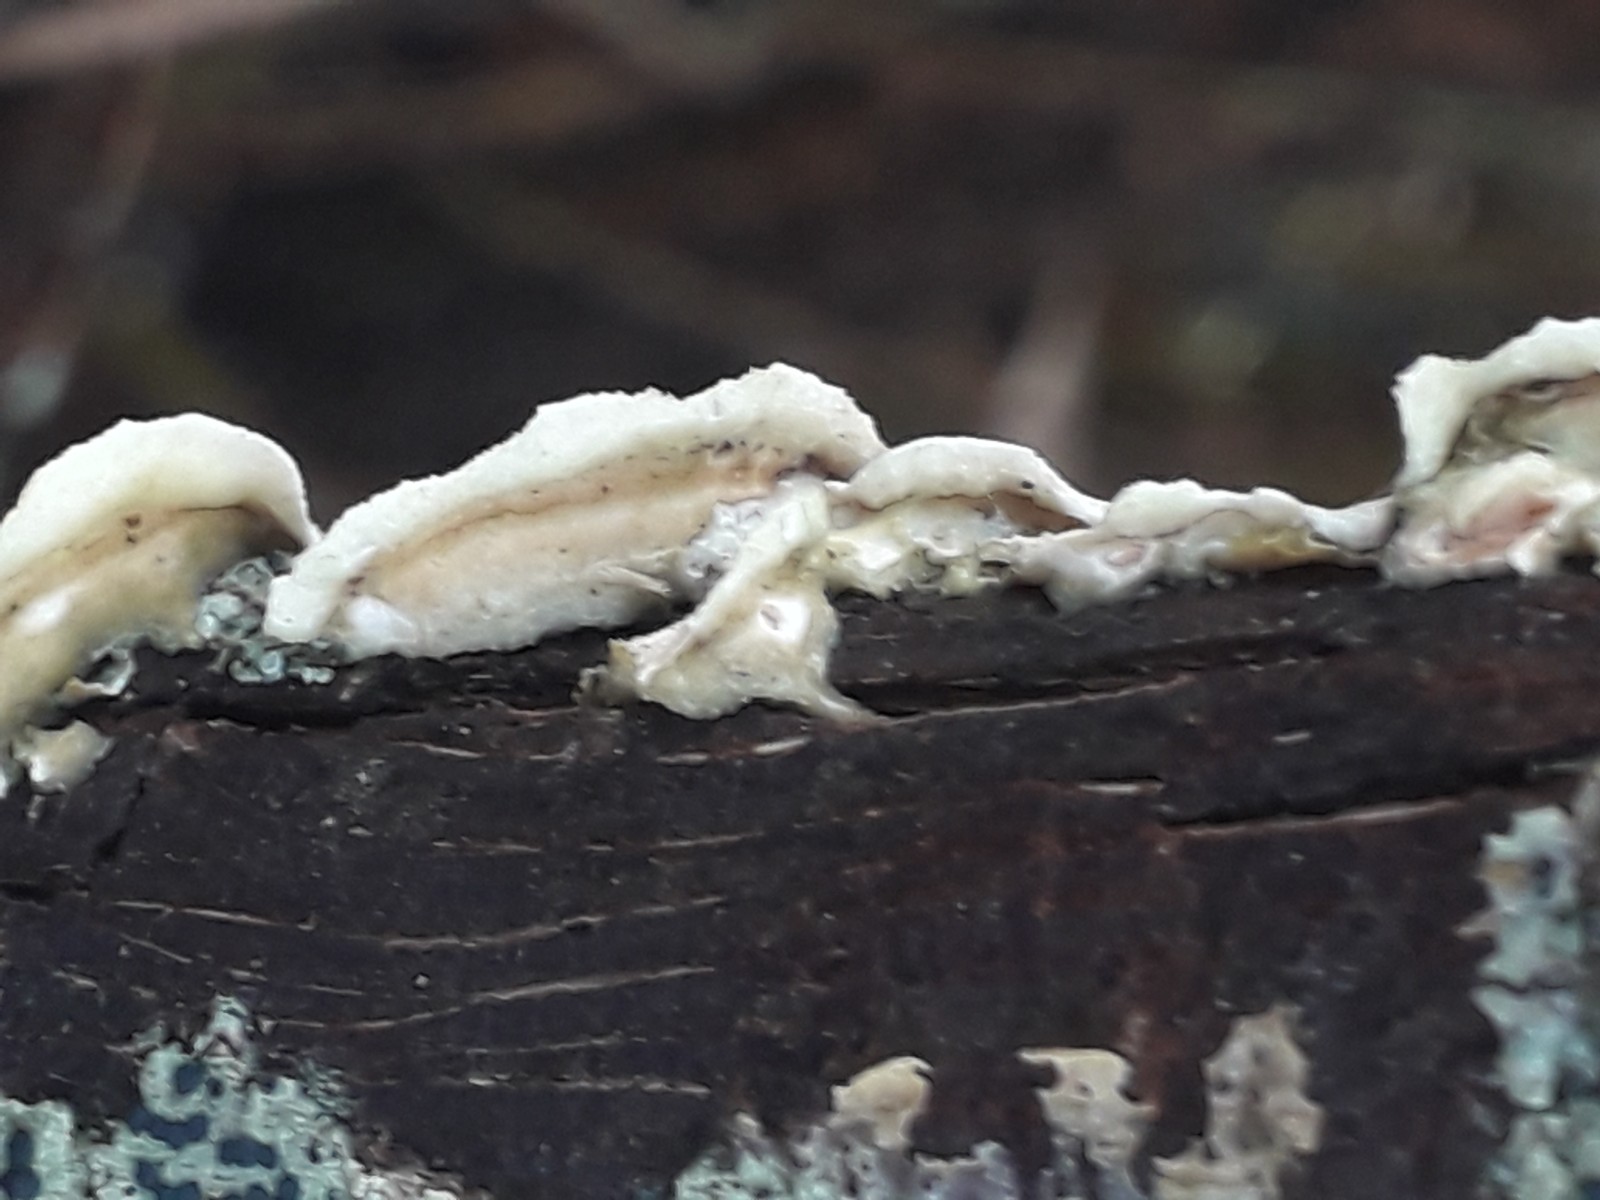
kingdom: Fungi
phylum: Basidiomycota
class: Agaricomycetes
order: Polyporales
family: Irpicaceae
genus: Byssomerulius
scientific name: Byssomerulius corium
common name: læder-åresvamp
